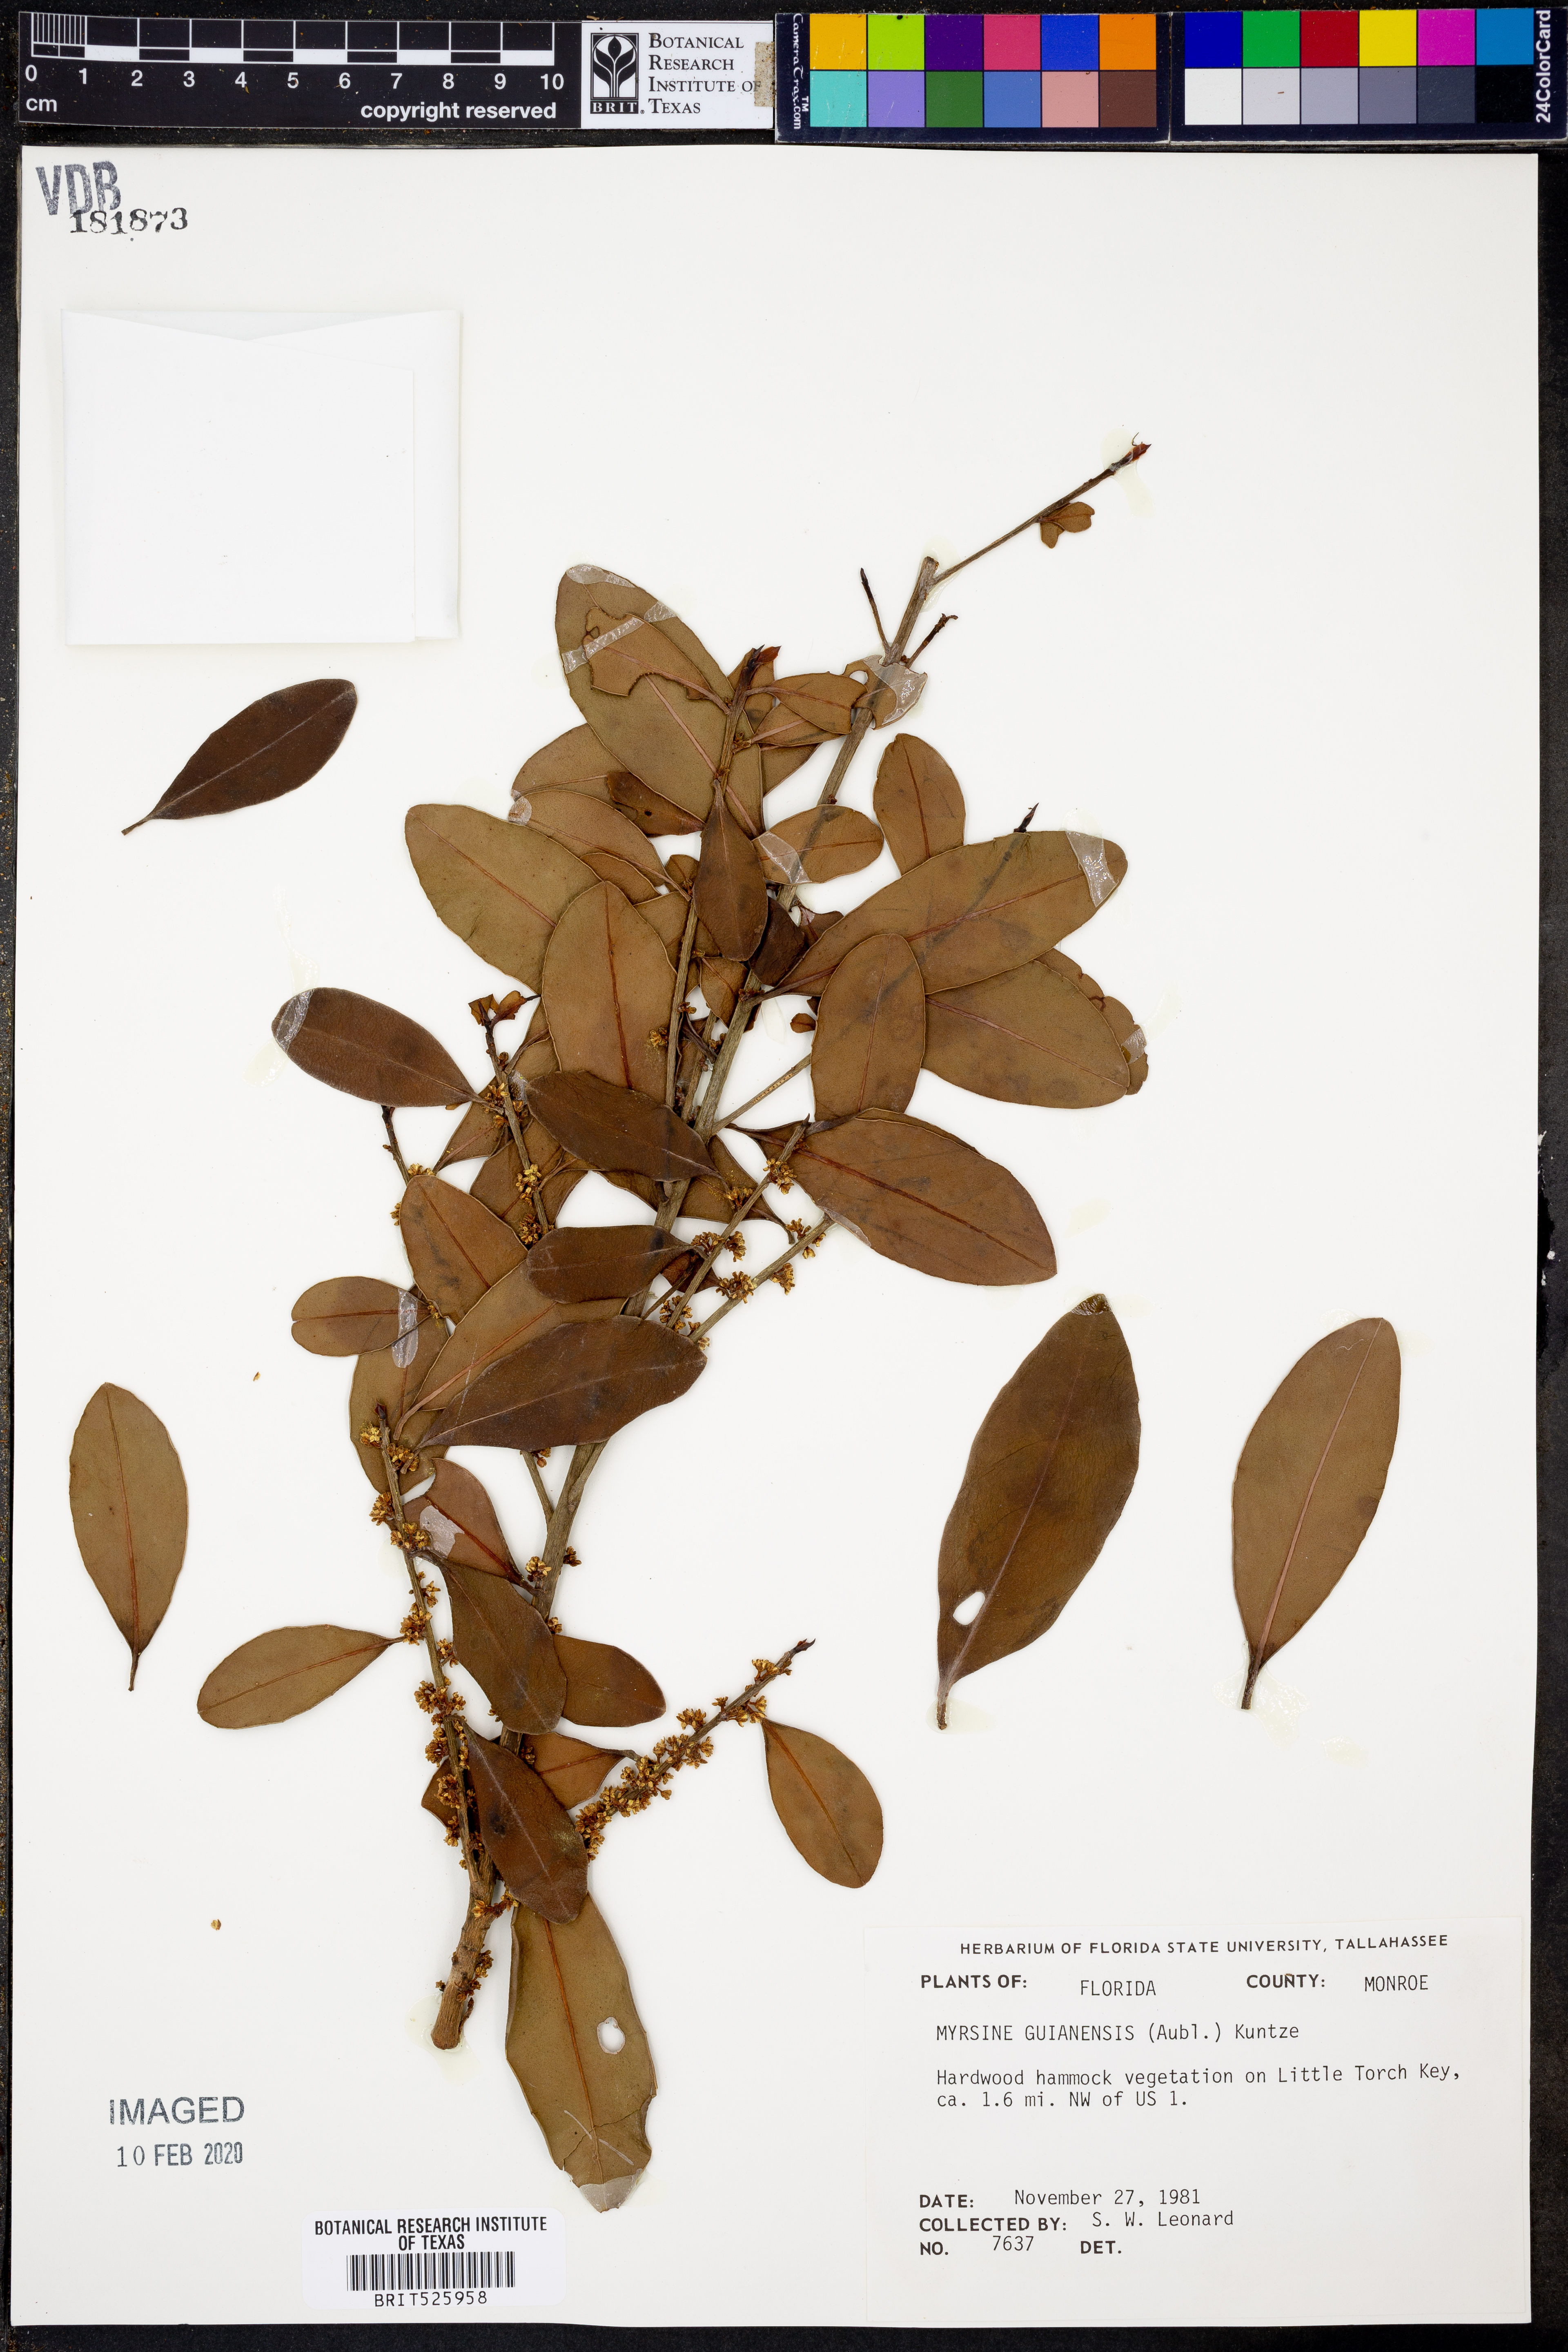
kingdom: Plantae
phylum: Tracheophyta
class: Magnoliopsida
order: Ericales
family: Primulaceae
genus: Myrsine
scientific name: Myrsine guianensis
